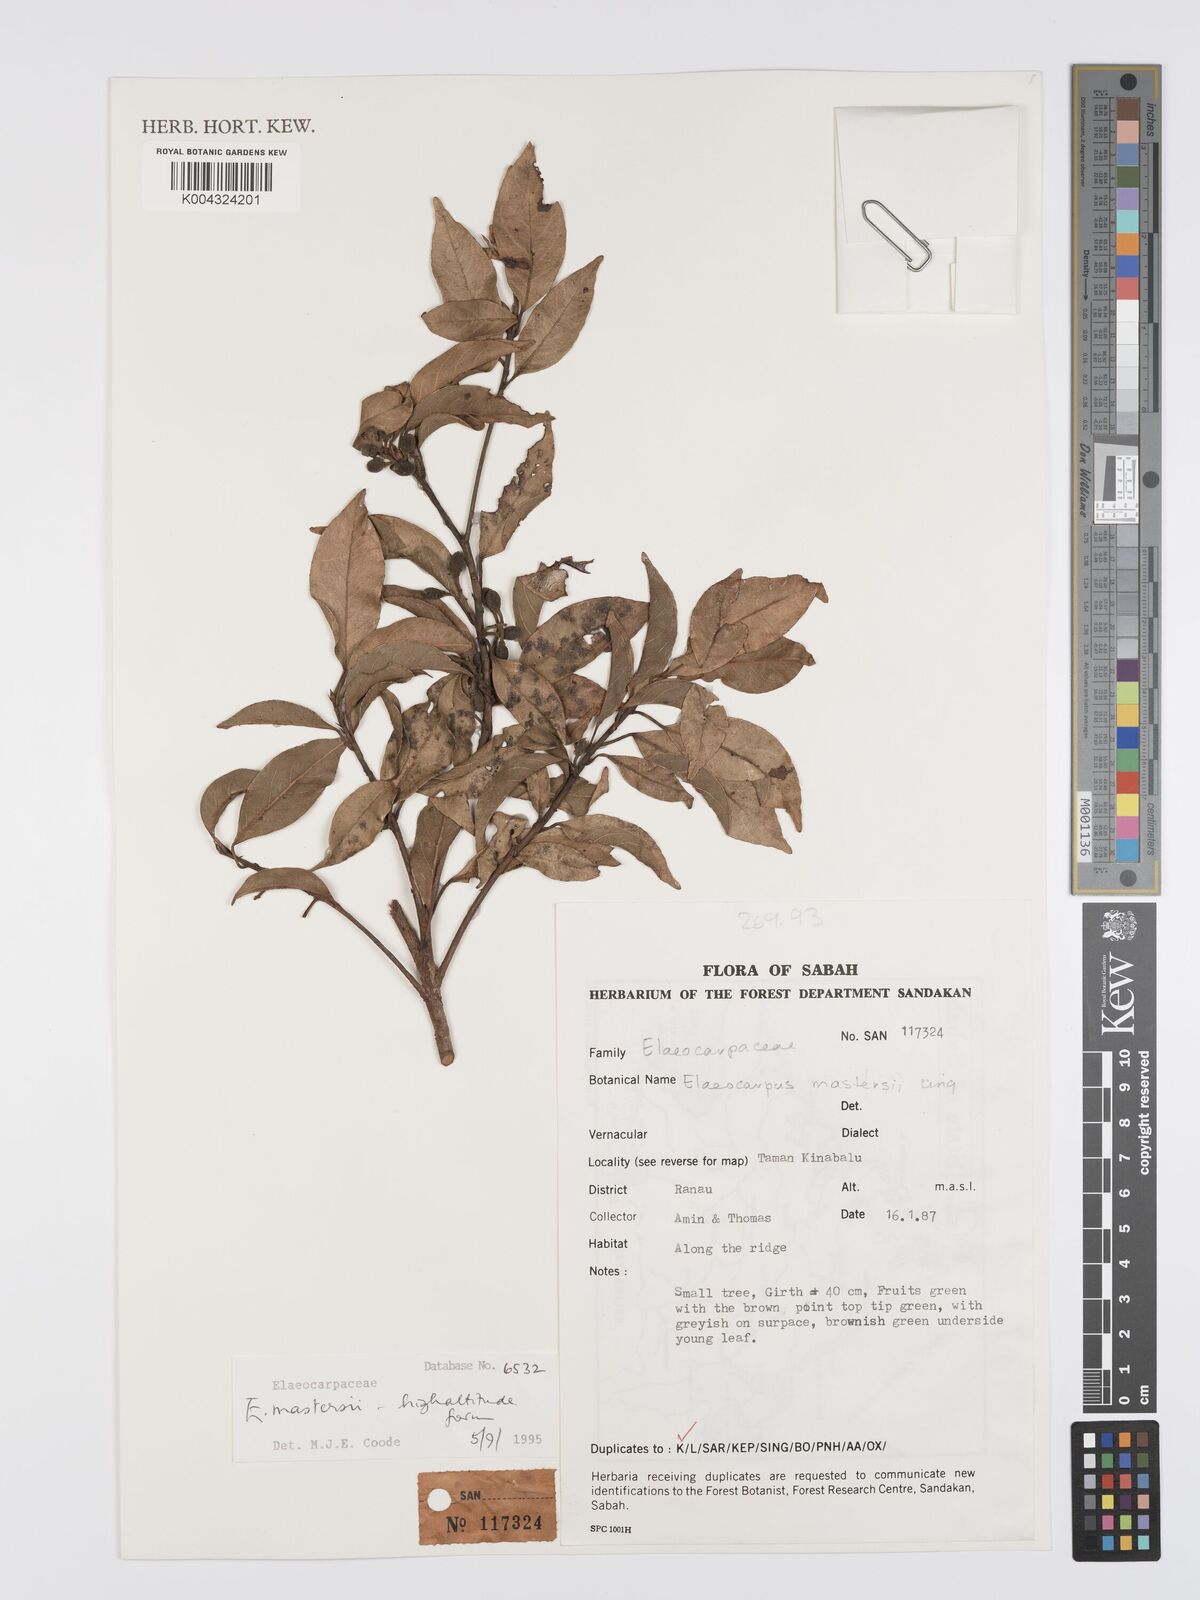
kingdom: Plantae
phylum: Tracheophyta
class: Magnoliopsida
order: Oxalidales
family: Elaeocarpaceae
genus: Elaeocarpus
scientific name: Elaeocarpus
